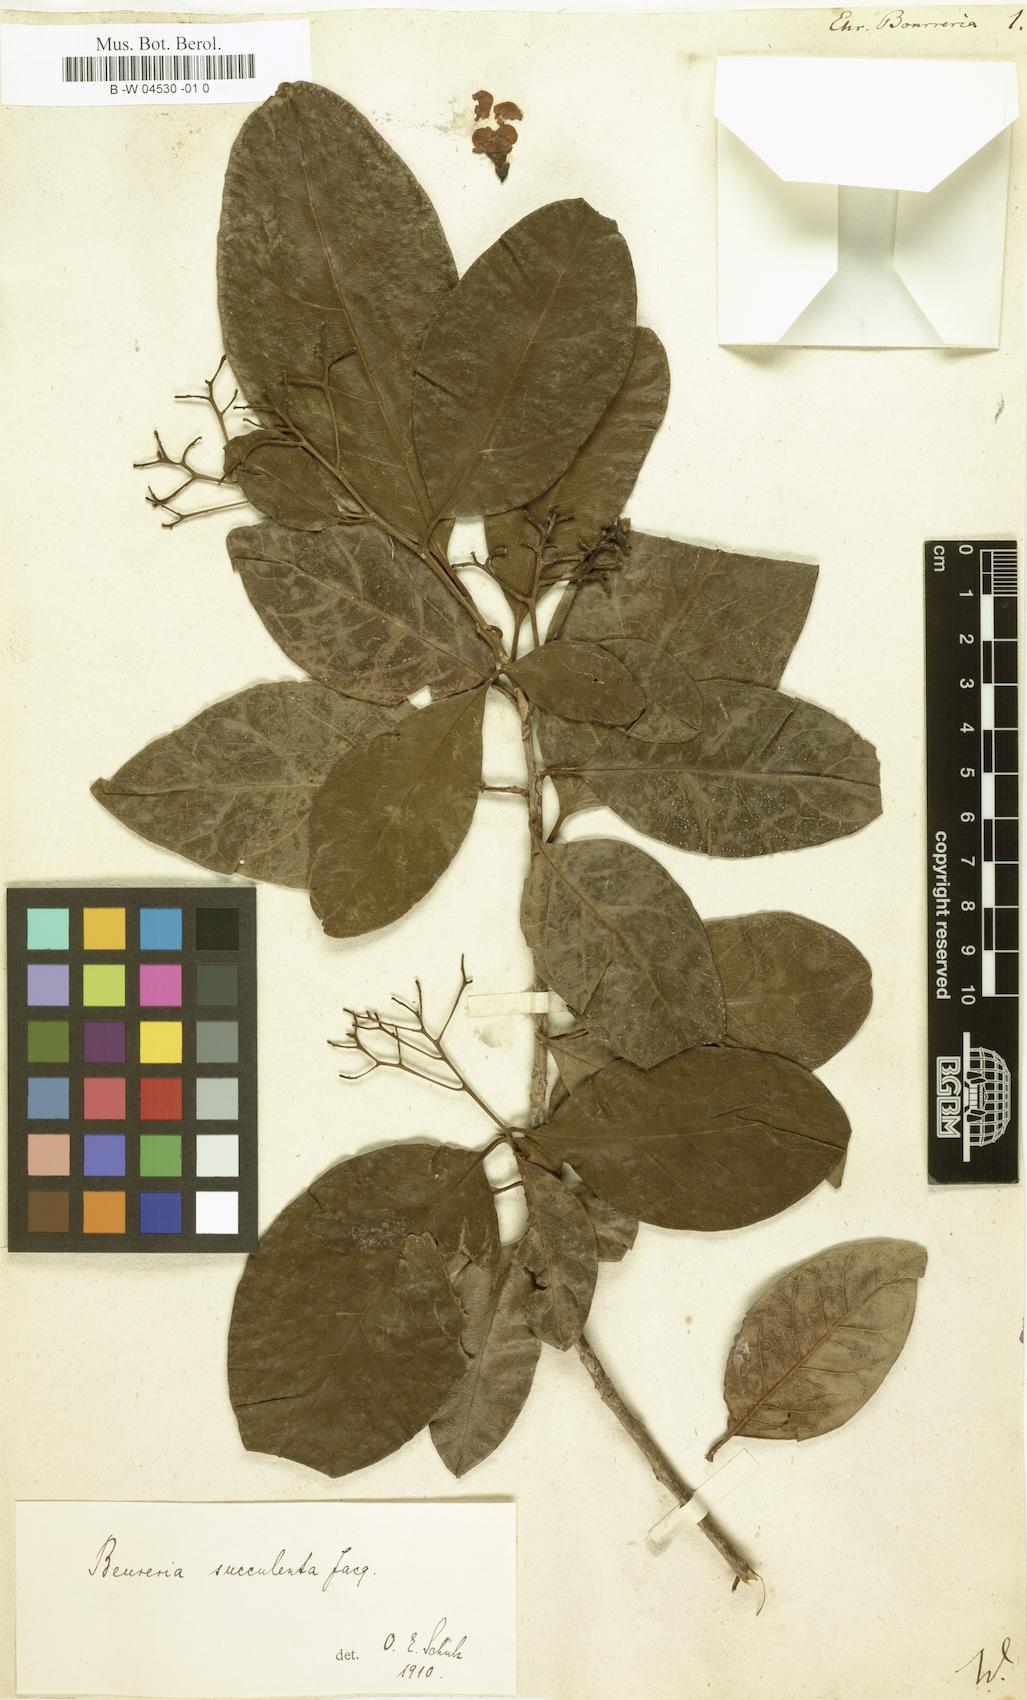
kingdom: Plantae
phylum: Tracheophyta
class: Magnoliopsida
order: Boraginales
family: Ehretiaceae
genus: Bourreria
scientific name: Bourreria succulenta
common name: Cherry
